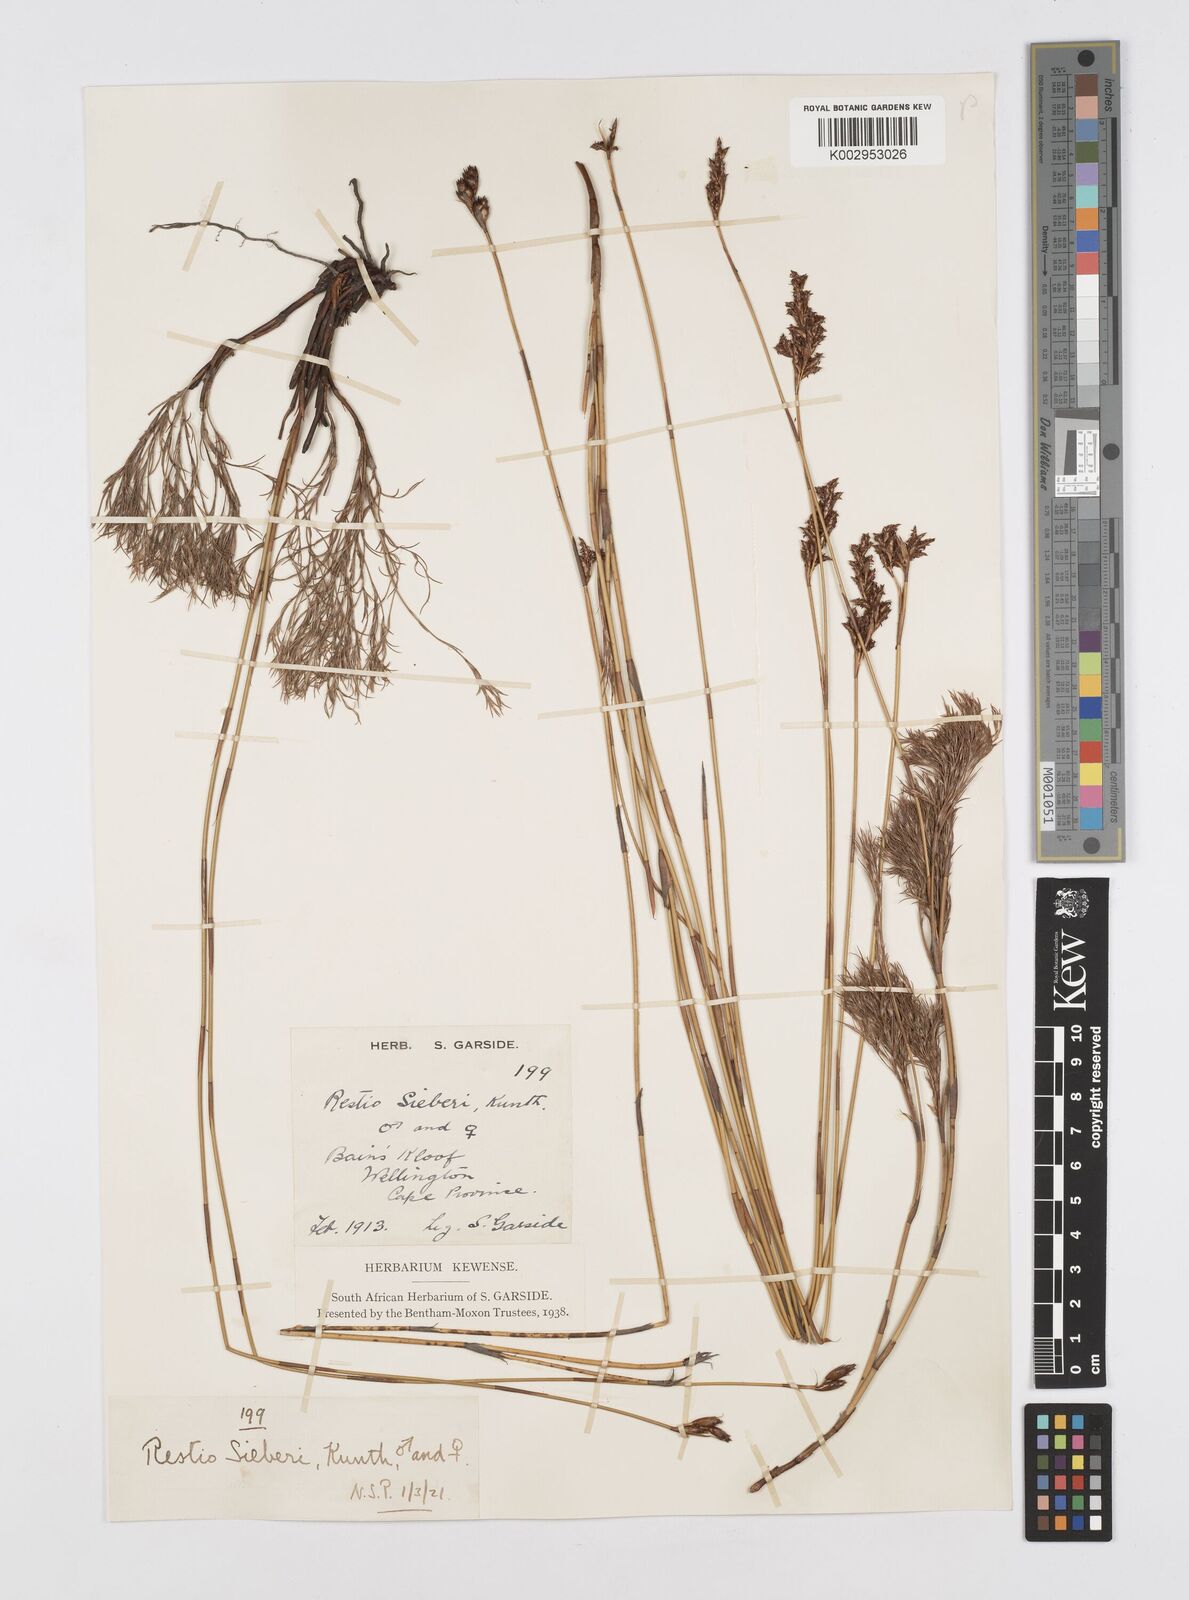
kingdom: Plantae
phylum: Tracheophyta
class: Liliopsida
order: Poales
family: Restionaceae
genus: Restio
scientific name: Restio sieberi
